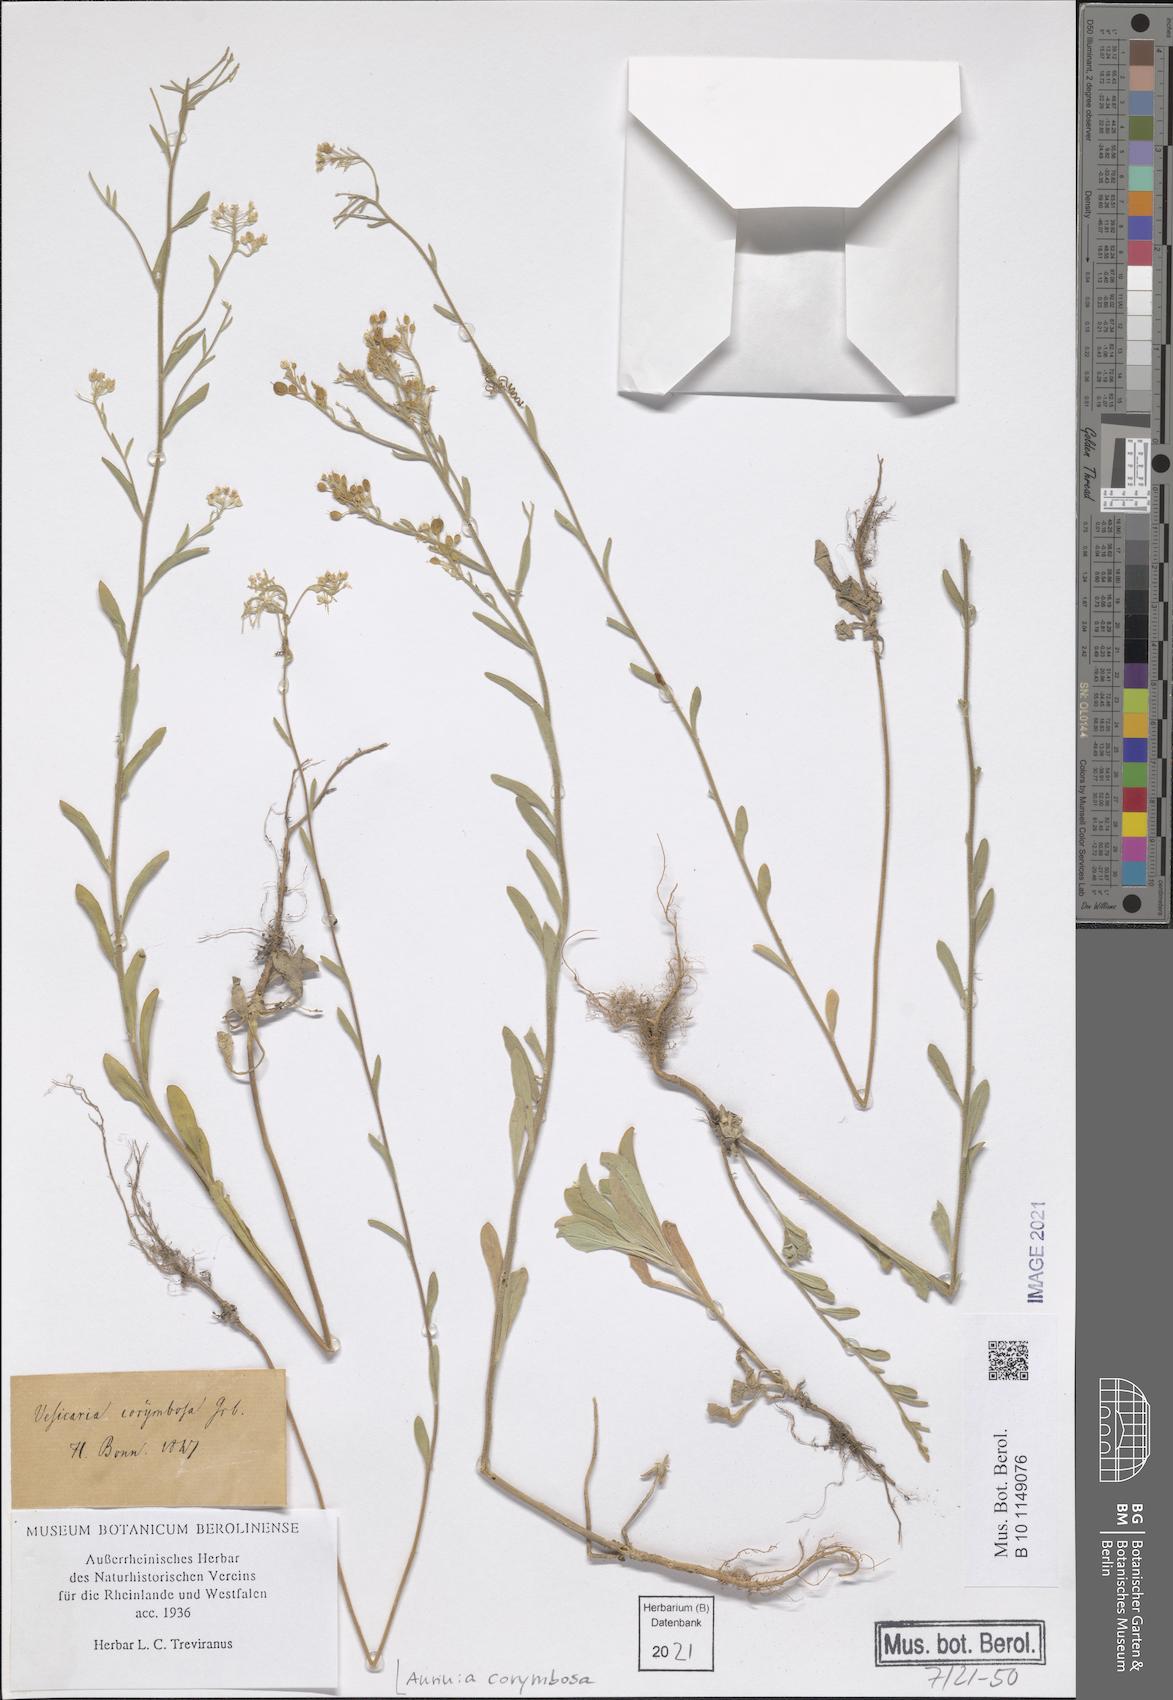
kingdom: Plantae
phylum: Tracheophyta
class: Magnoliopsida
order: Brassicales
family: Brassicaceae
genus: Aurinia
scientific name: Aurinia corymbosa
